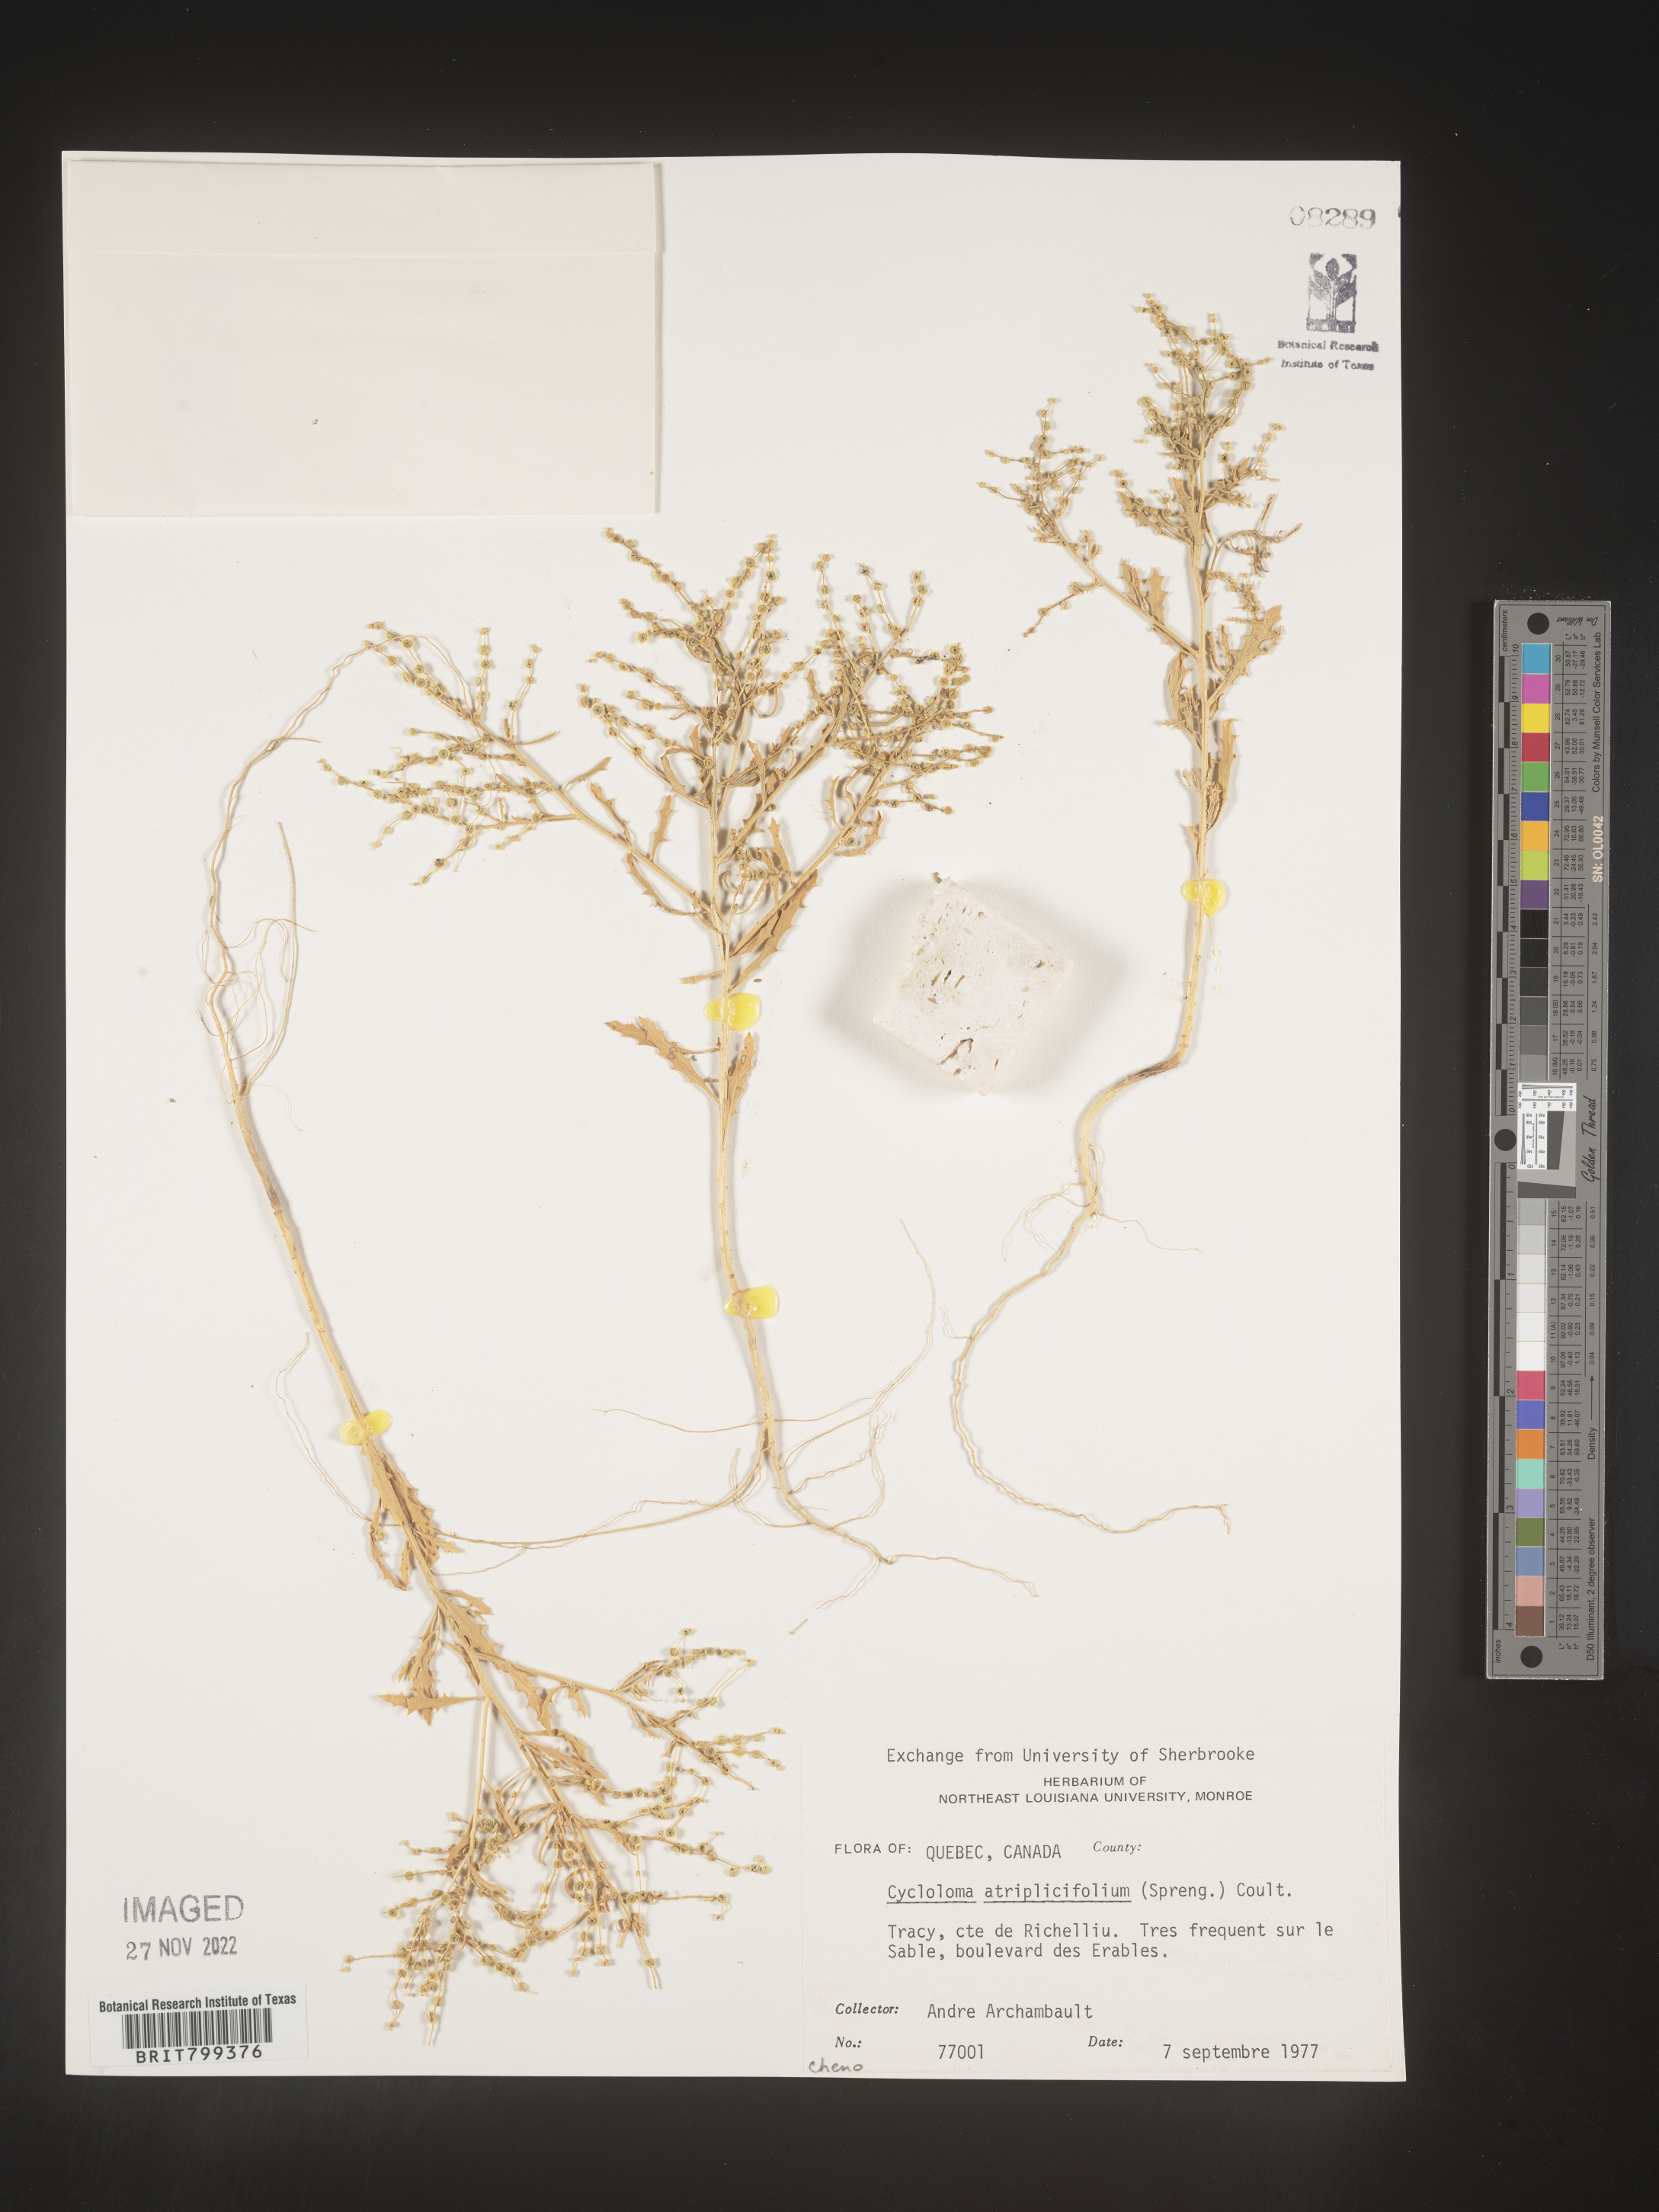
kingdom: Plantae
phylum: Tracheophyta
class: Magnoliopsida
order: Caryophyllales
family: Amaranthaceae
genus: Dysphania
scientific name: Dysphania atriplicifolia
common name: Plains tumbleweed
